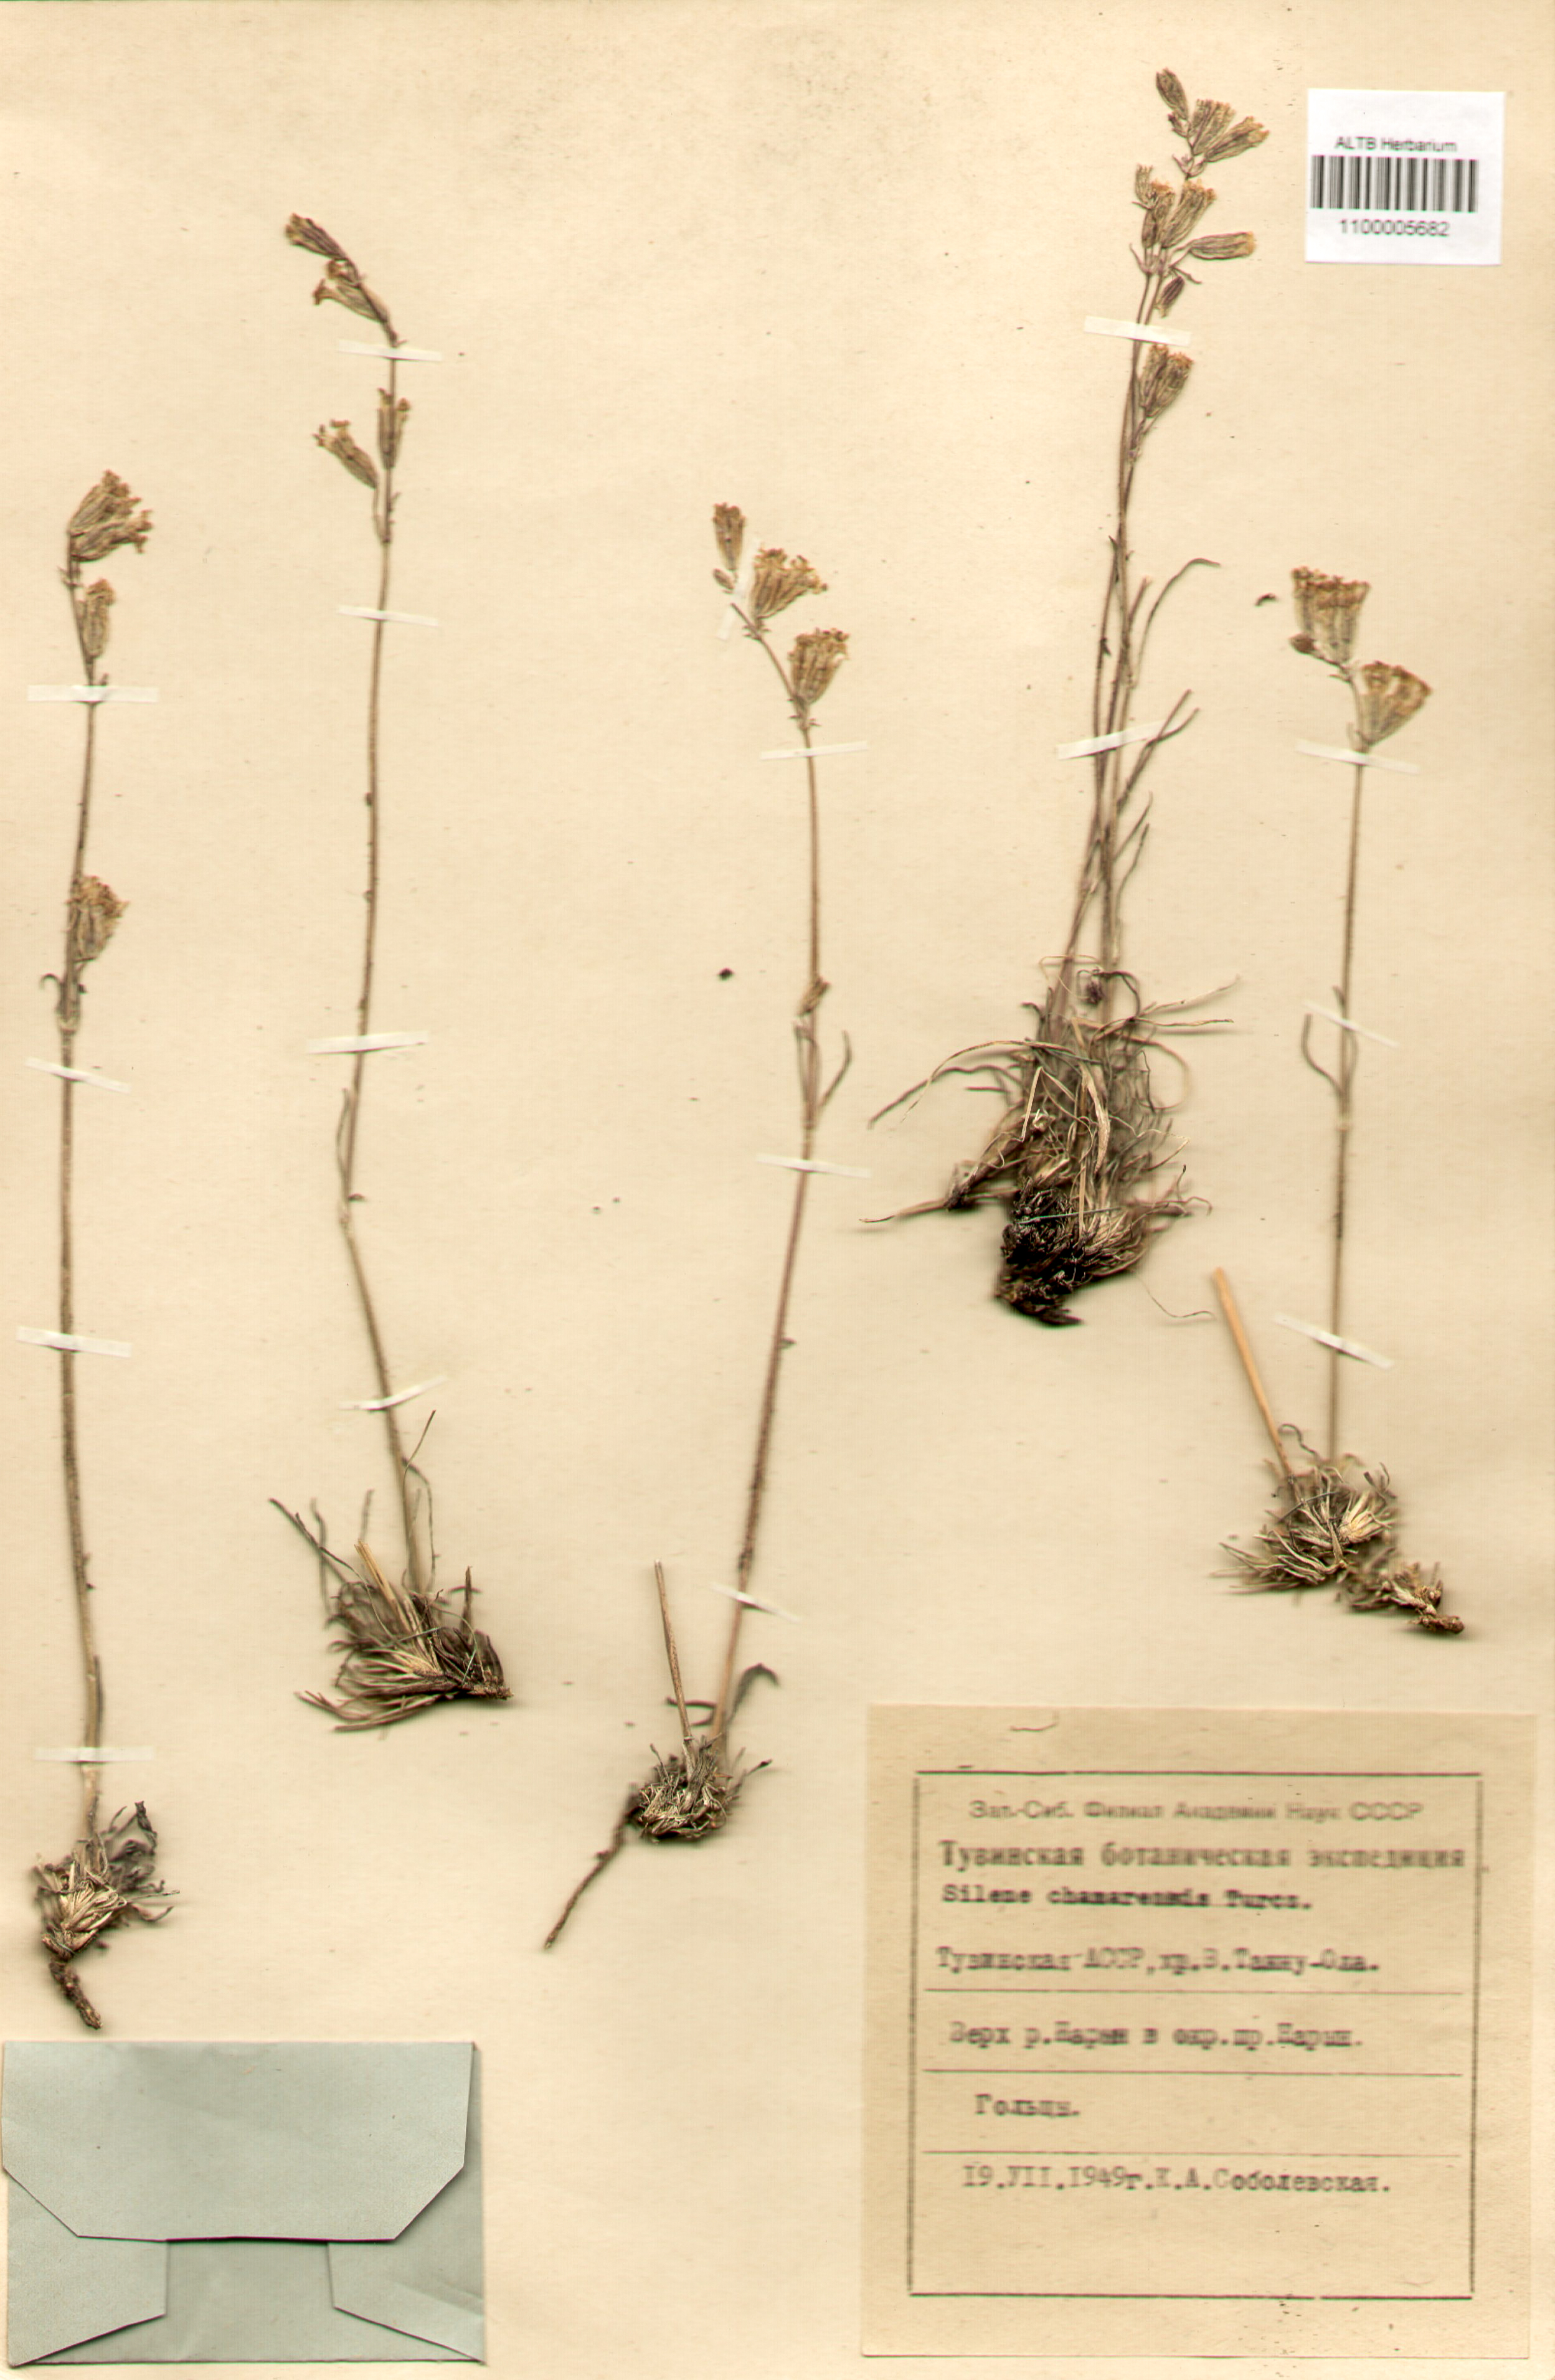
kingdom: Plantae
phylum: Tracheophyta
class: Magnoliopsida
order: Caryophyllales
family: Caryophyllaceae
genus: Silene
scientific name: Silene chamarensis
